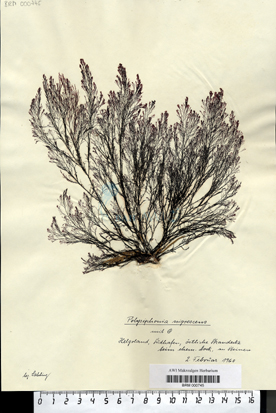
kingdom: Plantae
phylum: Rhodophyta
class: Florideophyceae
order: Ceramiales
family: Rhodomelaceae
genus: Vertebrata
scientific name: Vertebrata spec
